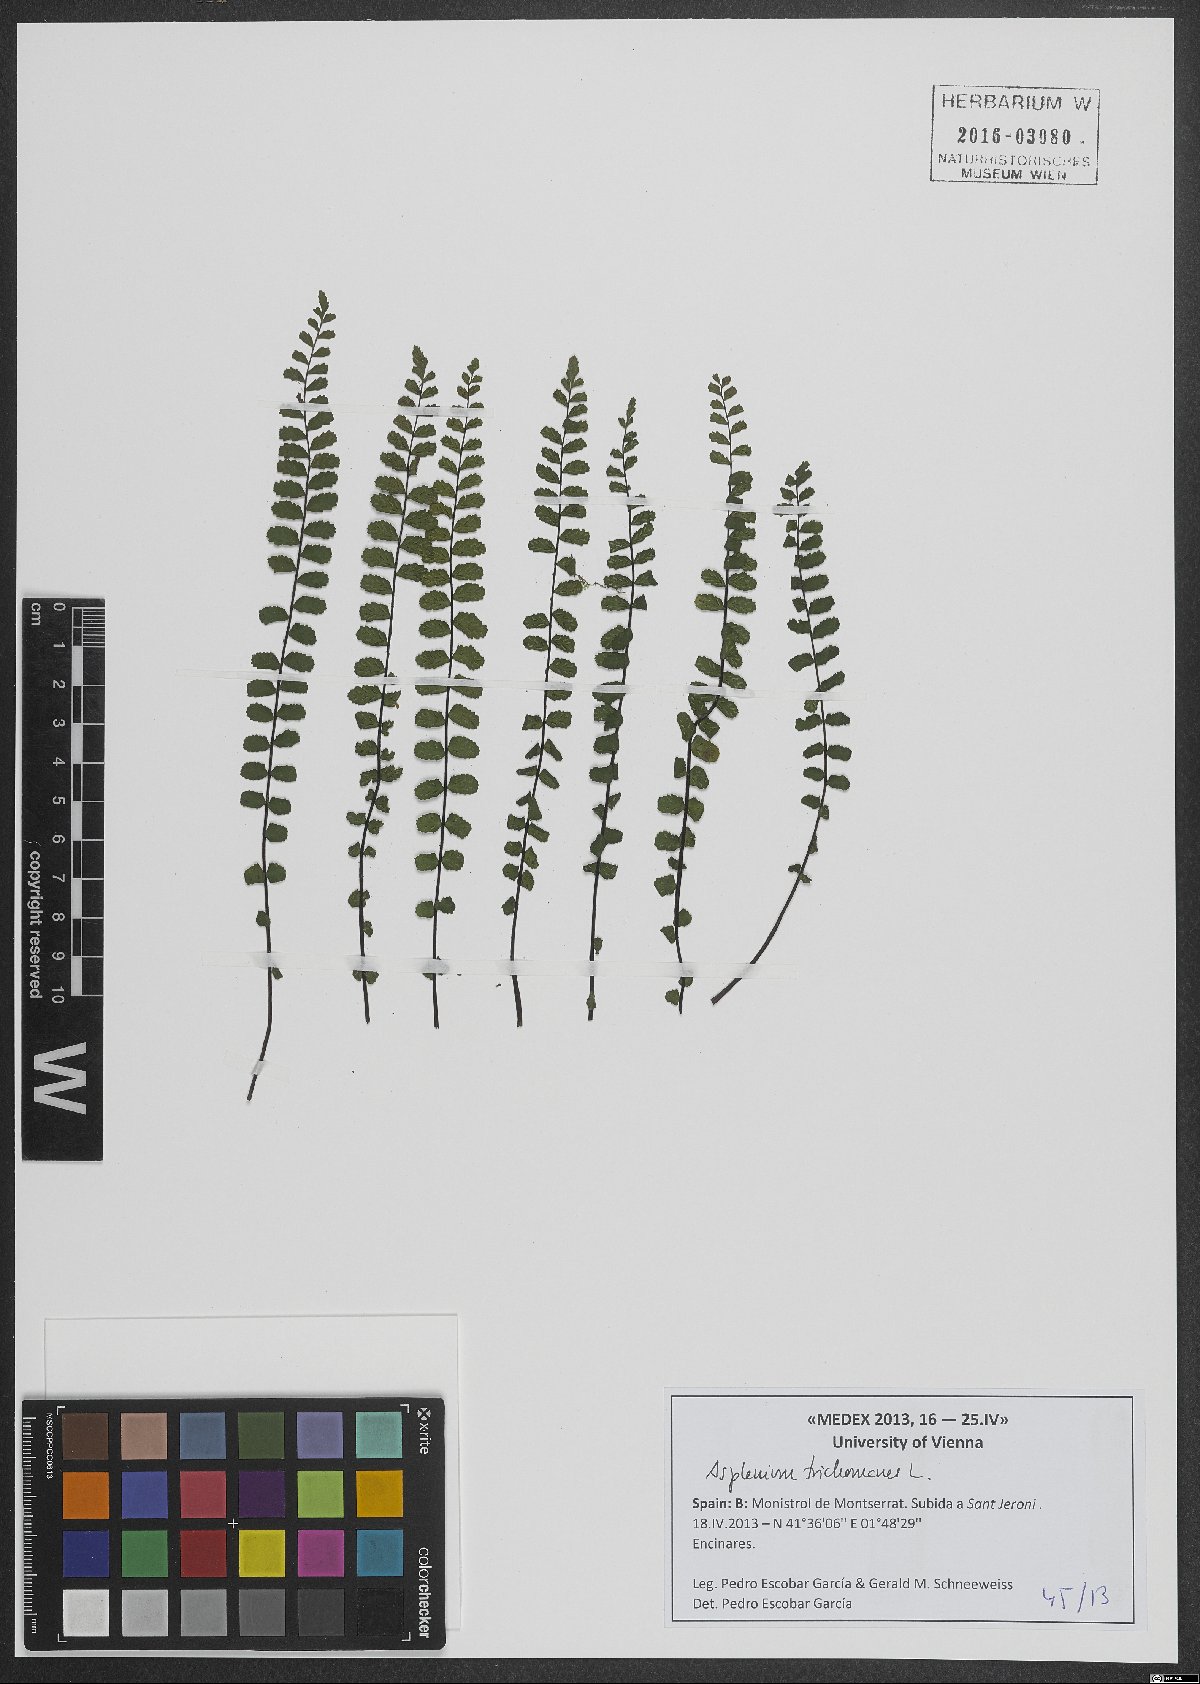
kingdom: Plantae
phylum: Tracheophyta
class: Polypodiopsida
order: Polypodiales
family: Aspleniaceae
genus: Asplenium
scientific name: Asplenium trichomanes
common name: Maidenhair spleenwort
